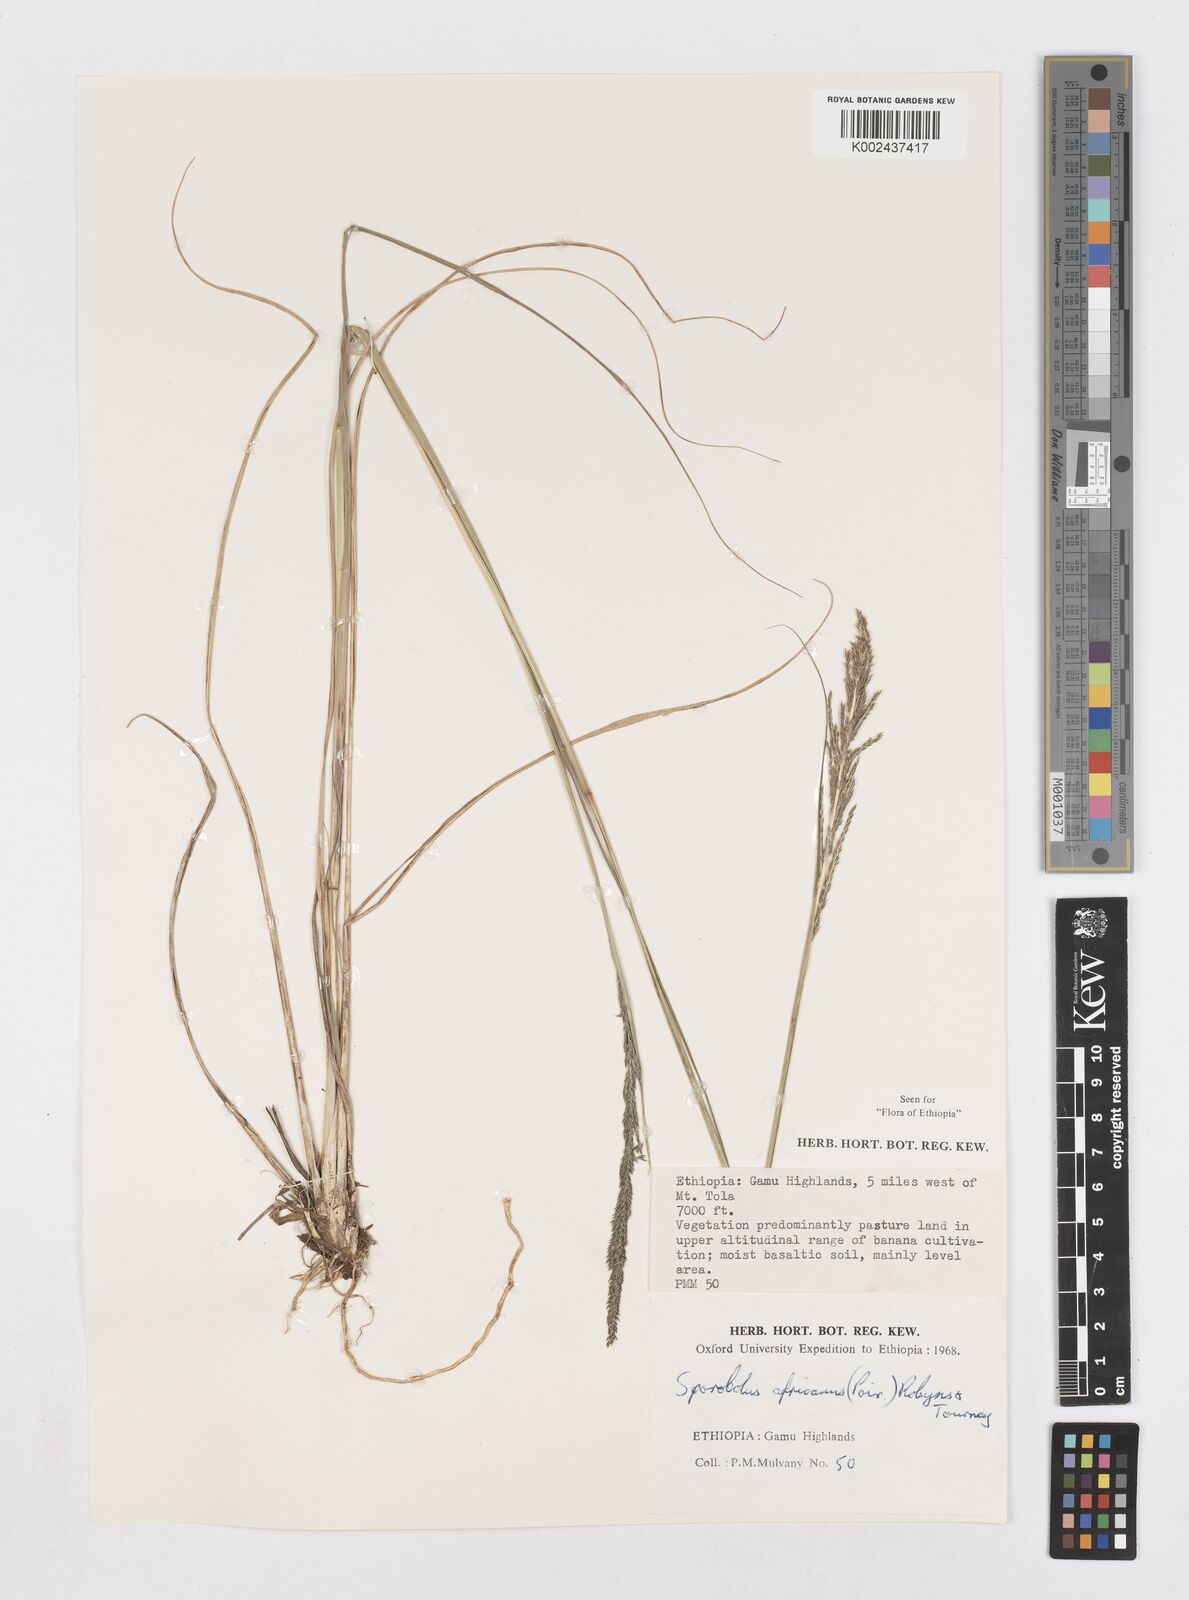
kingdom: Plantae
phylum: Tracheophyta
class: Liliopsida
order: Poales
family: Poaceae
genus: Sporobolus
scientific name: Sporobolus africanus
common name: African dropseed
